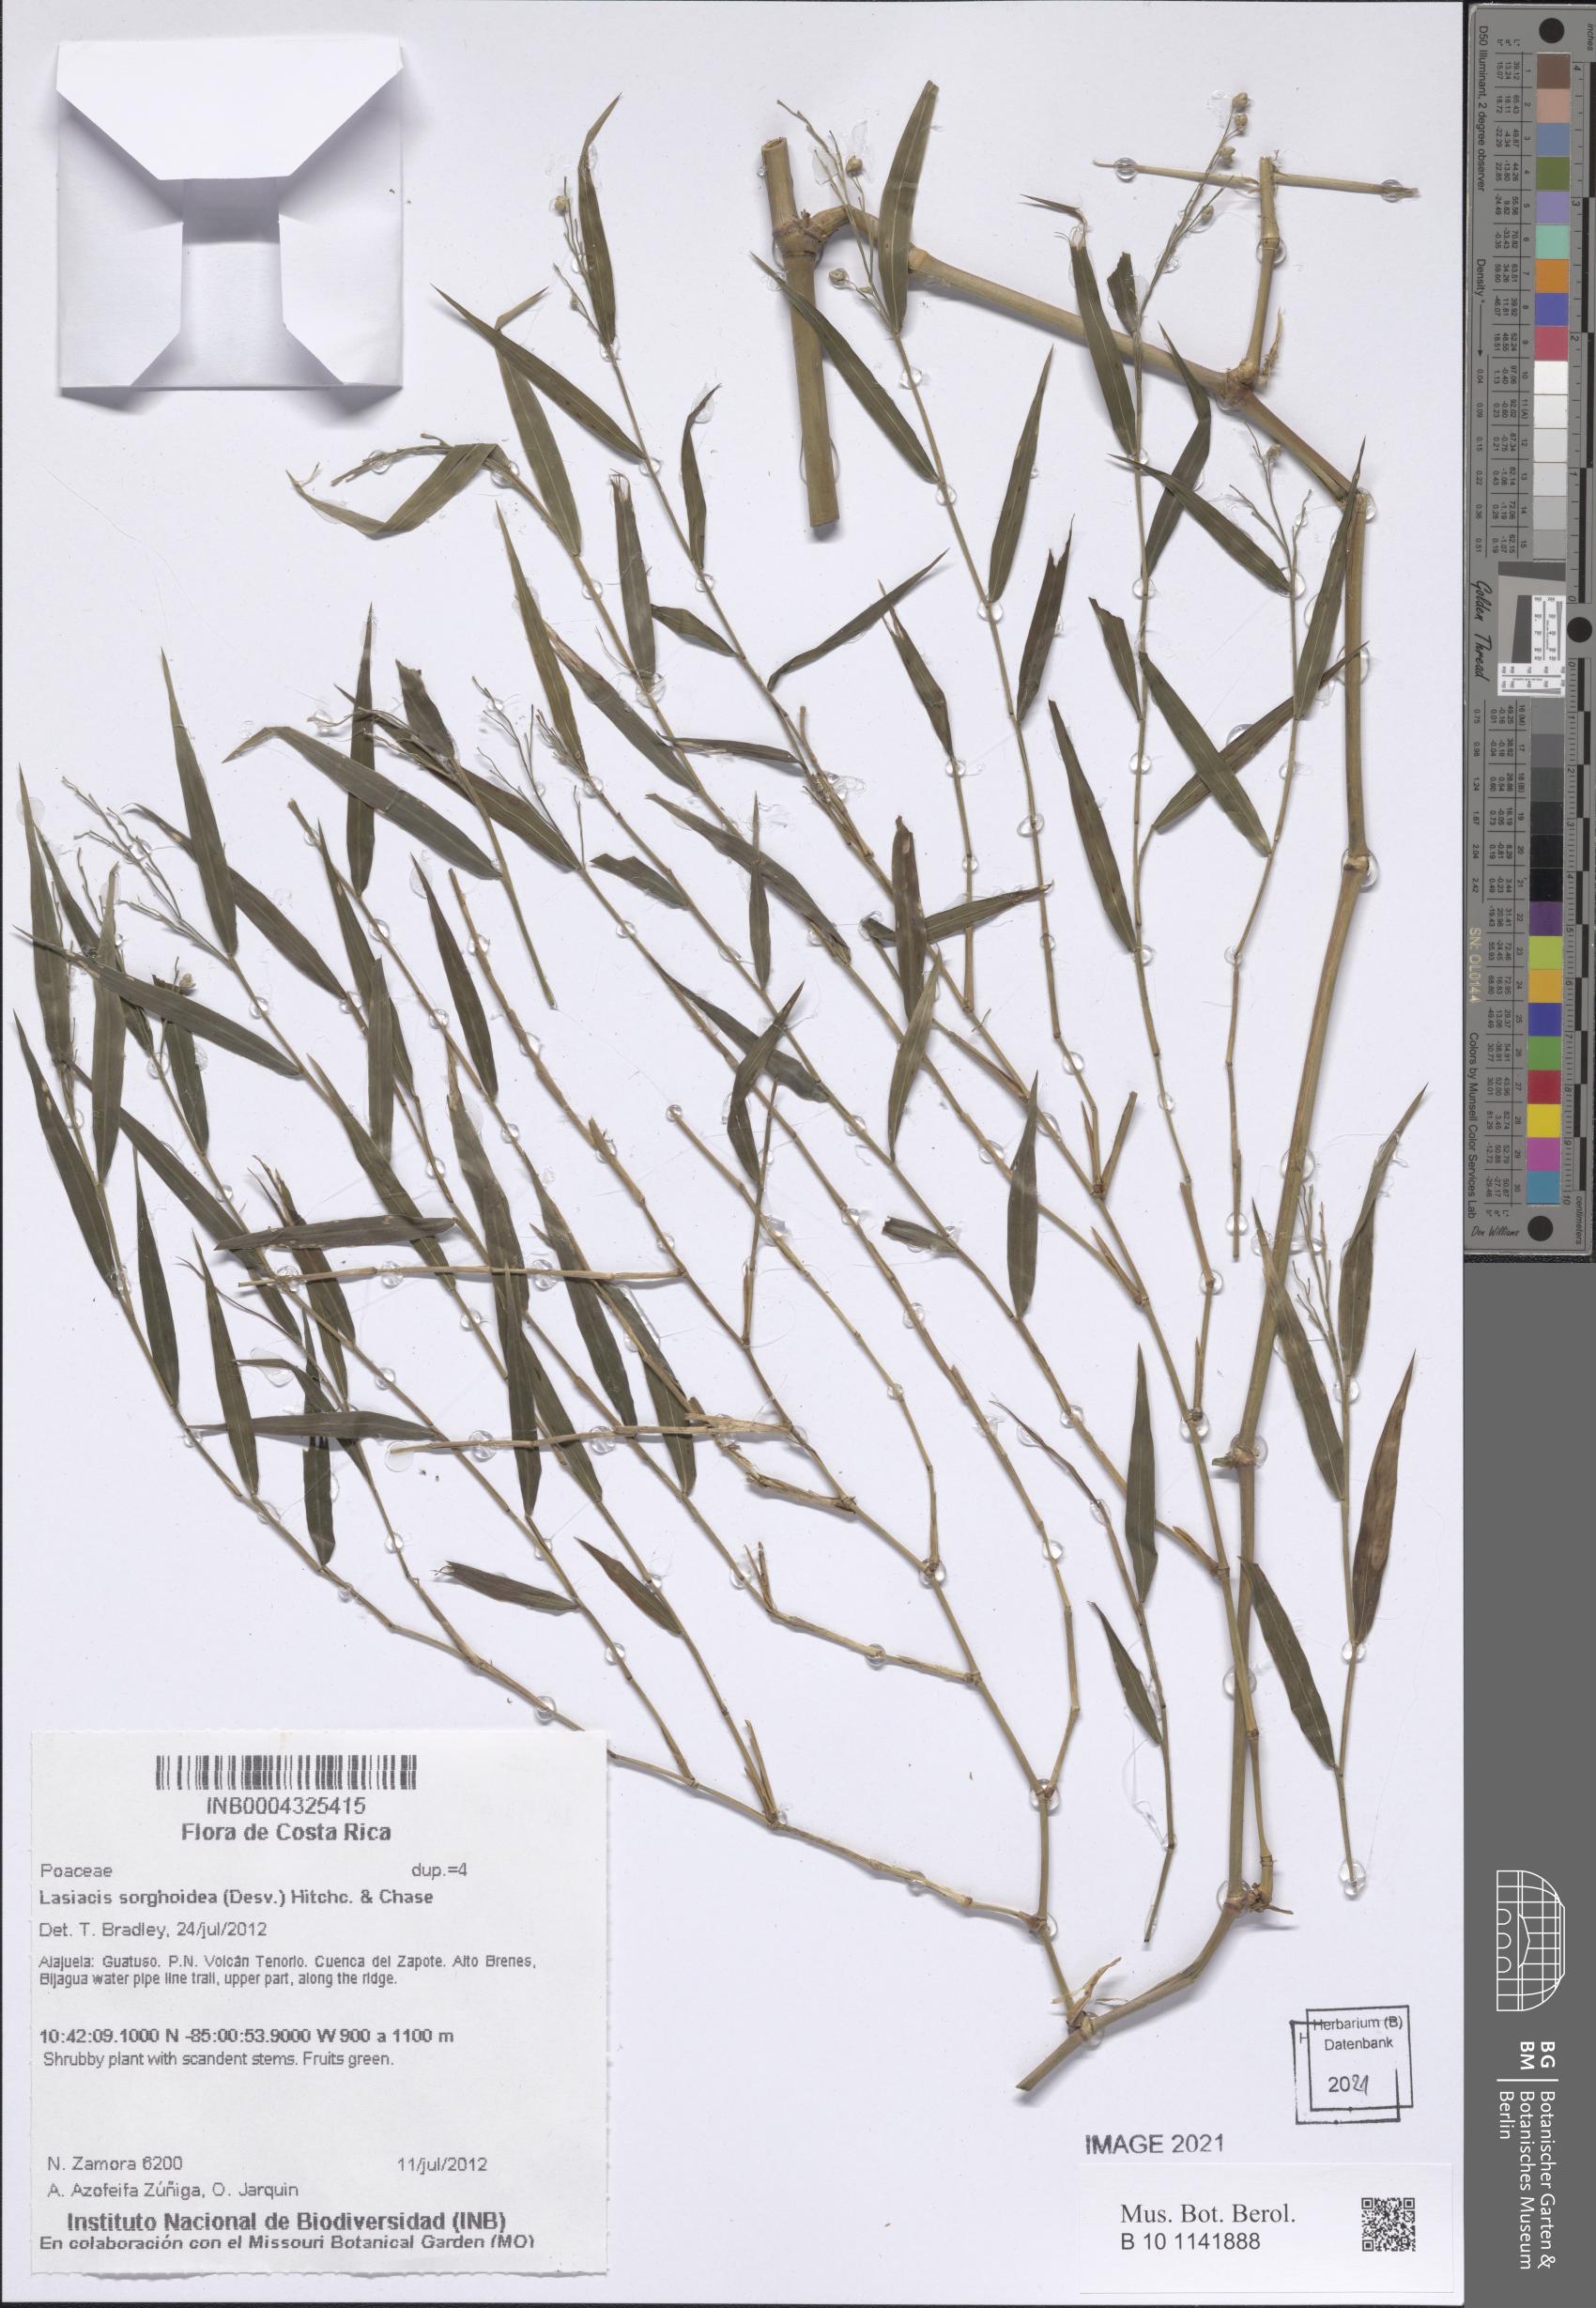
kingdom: Plantae
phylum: Tracheophyta
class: Liliopsida
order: Poales
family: Poaceae
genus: Lasiacis
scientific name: Lasiacis maculata
